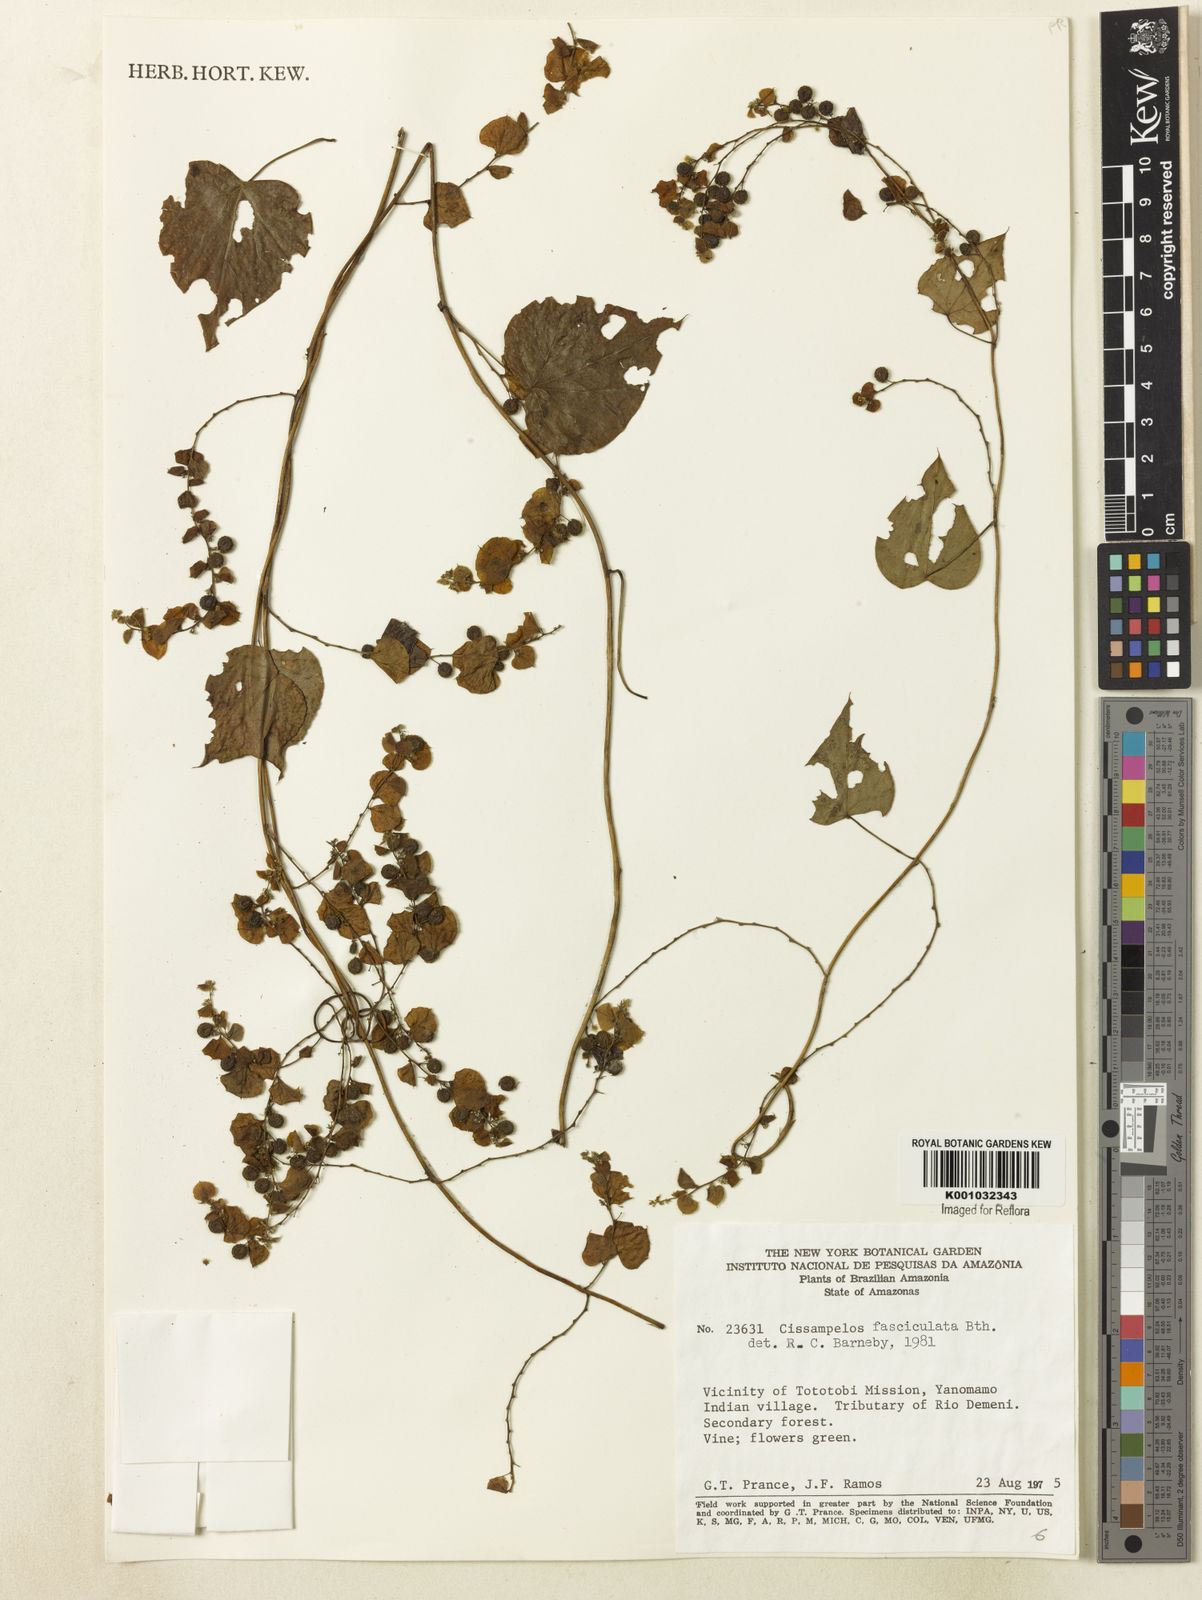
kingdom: Plantae
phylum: Tracheophyta
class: Magnoliopsida
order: Ranunculales
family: Menispermaceae
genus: Cissampelos
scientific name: Cissampelos fasciculata
